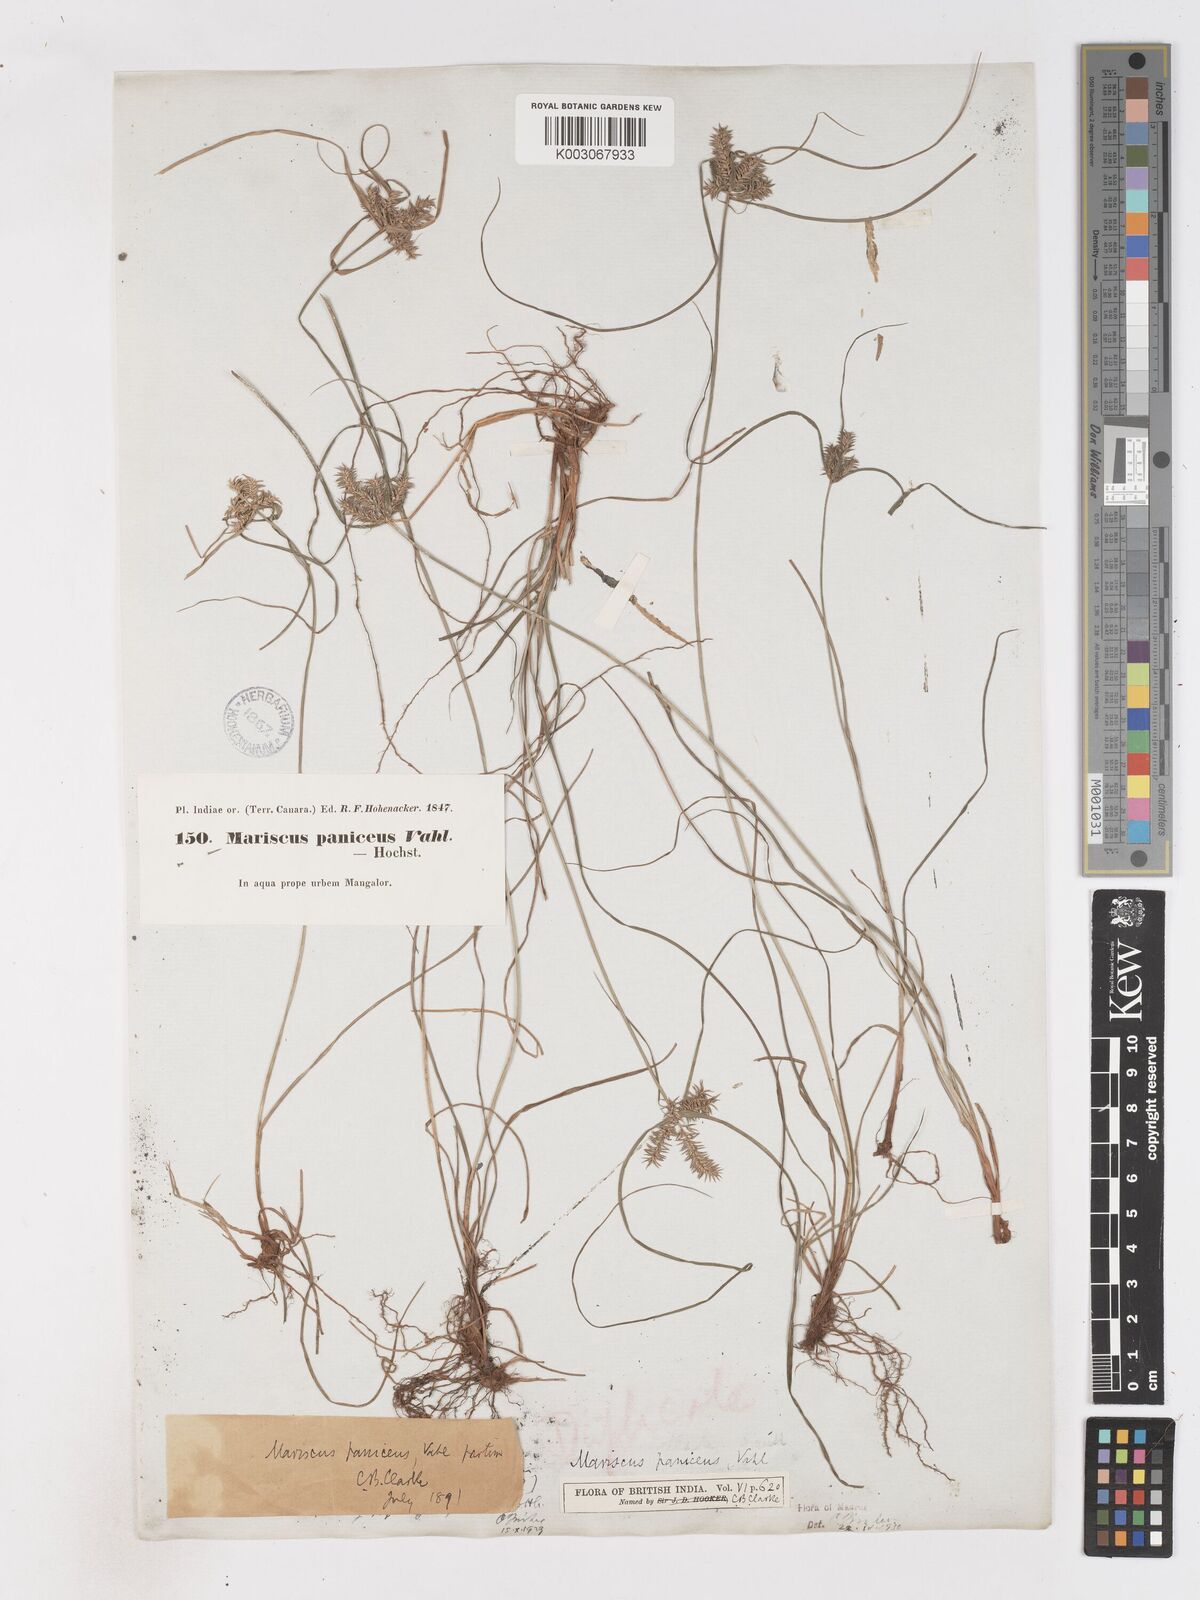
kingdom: Plantae
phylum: Tracheophyta
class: Liliopsida
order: Poales
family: Cyperaceae
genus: Cyperus
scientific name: Cyperus paniceus
